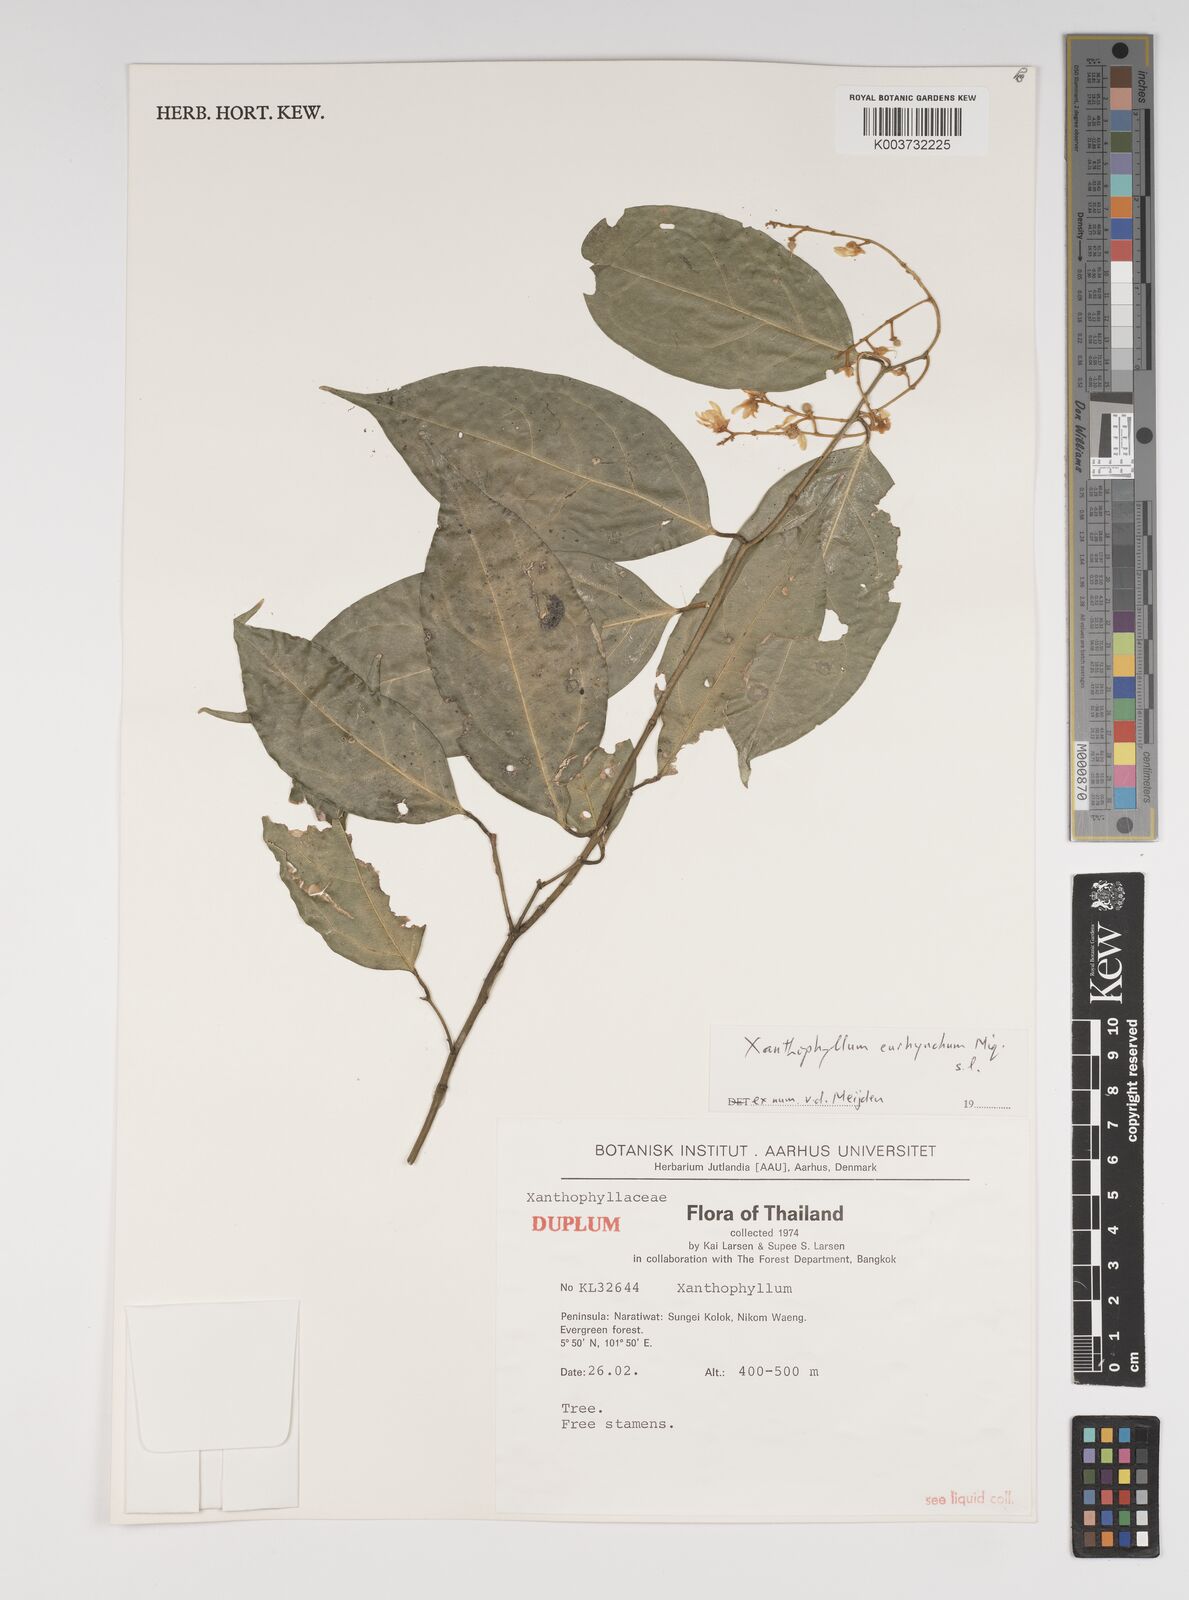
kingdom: Plantae
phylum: Tracheophyta
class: Magnoliopsida
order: Fabales
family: Polygalaceae
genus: Xanthophyllum
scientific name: Xanthophyllum eurhynchum
